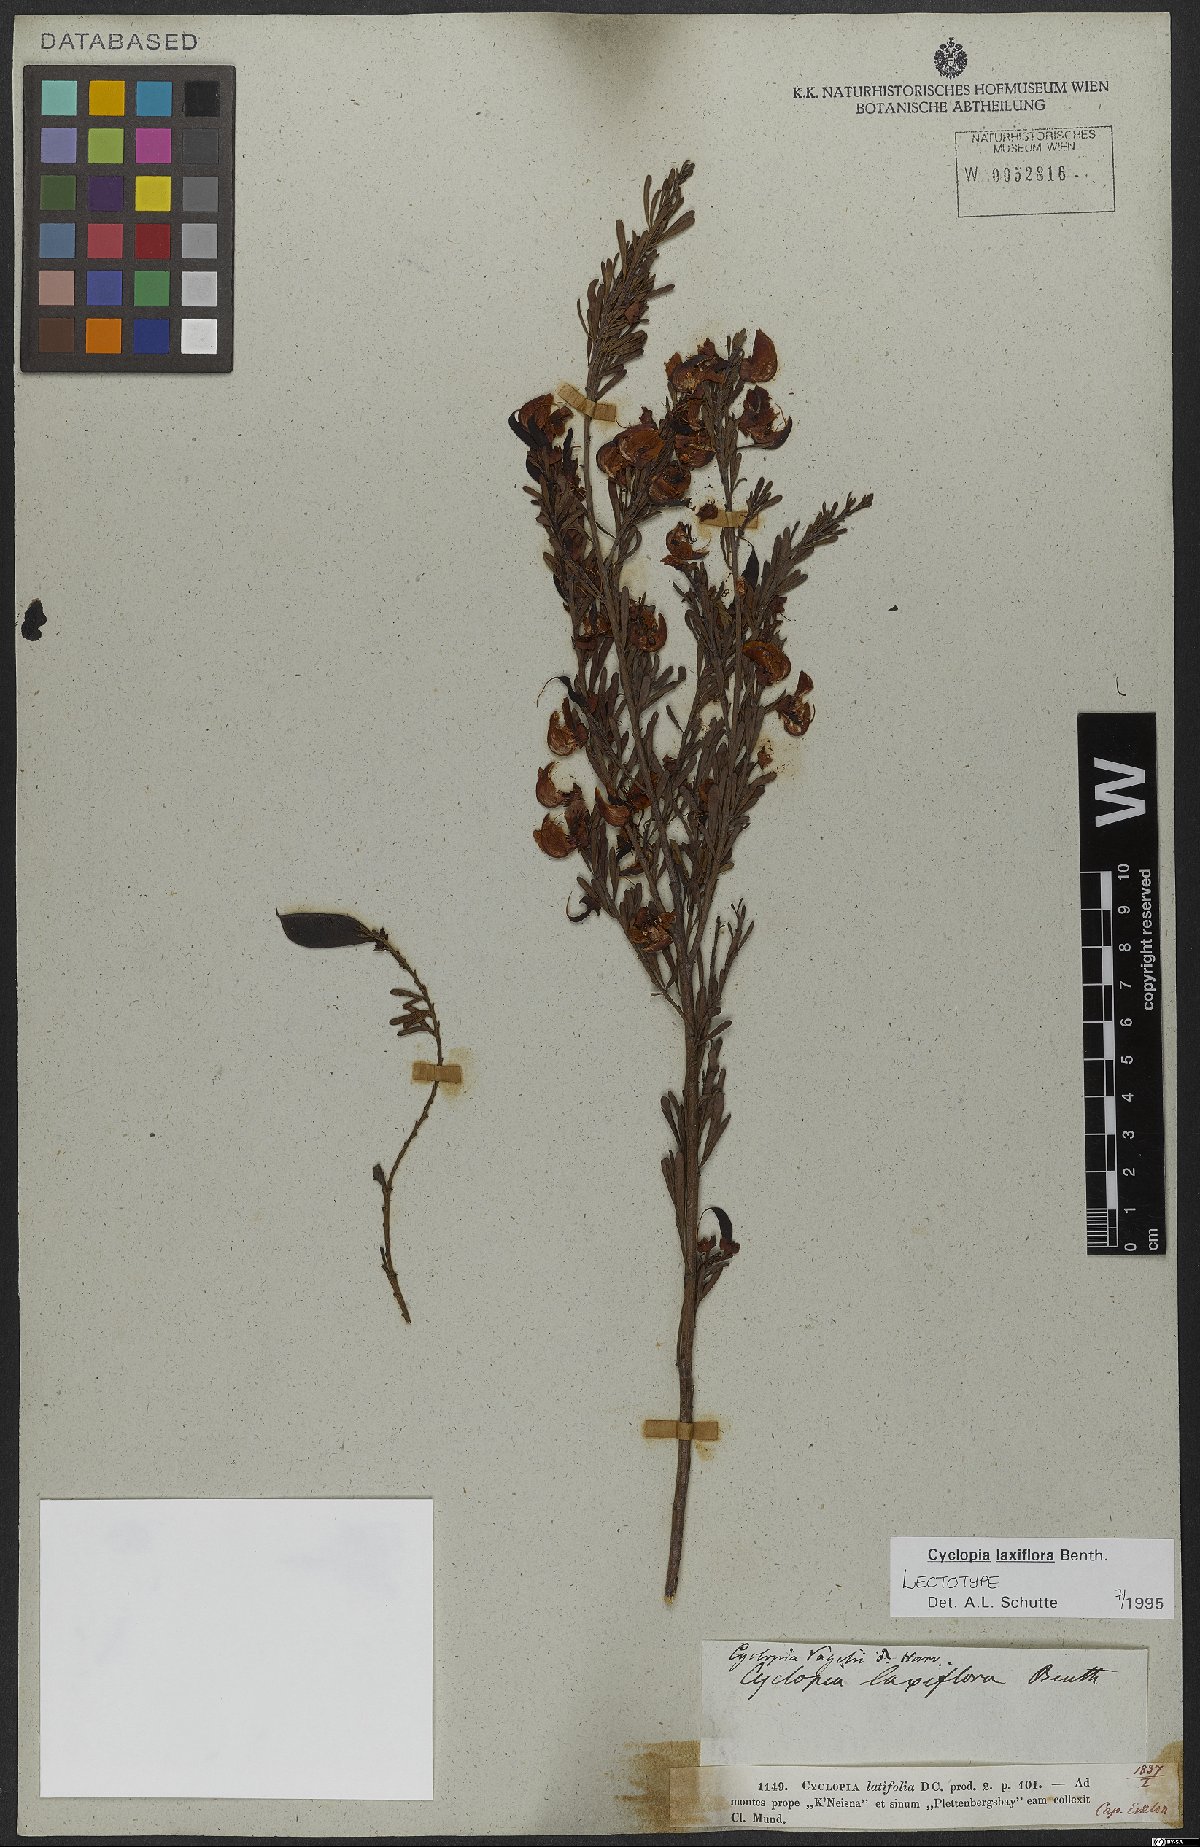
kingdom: Plantae
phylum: Tracheophyta
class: Magnoliopsida
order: Fabales
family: Fabaceae
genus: Cyclopia
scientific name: Cyclopia laxiflora
